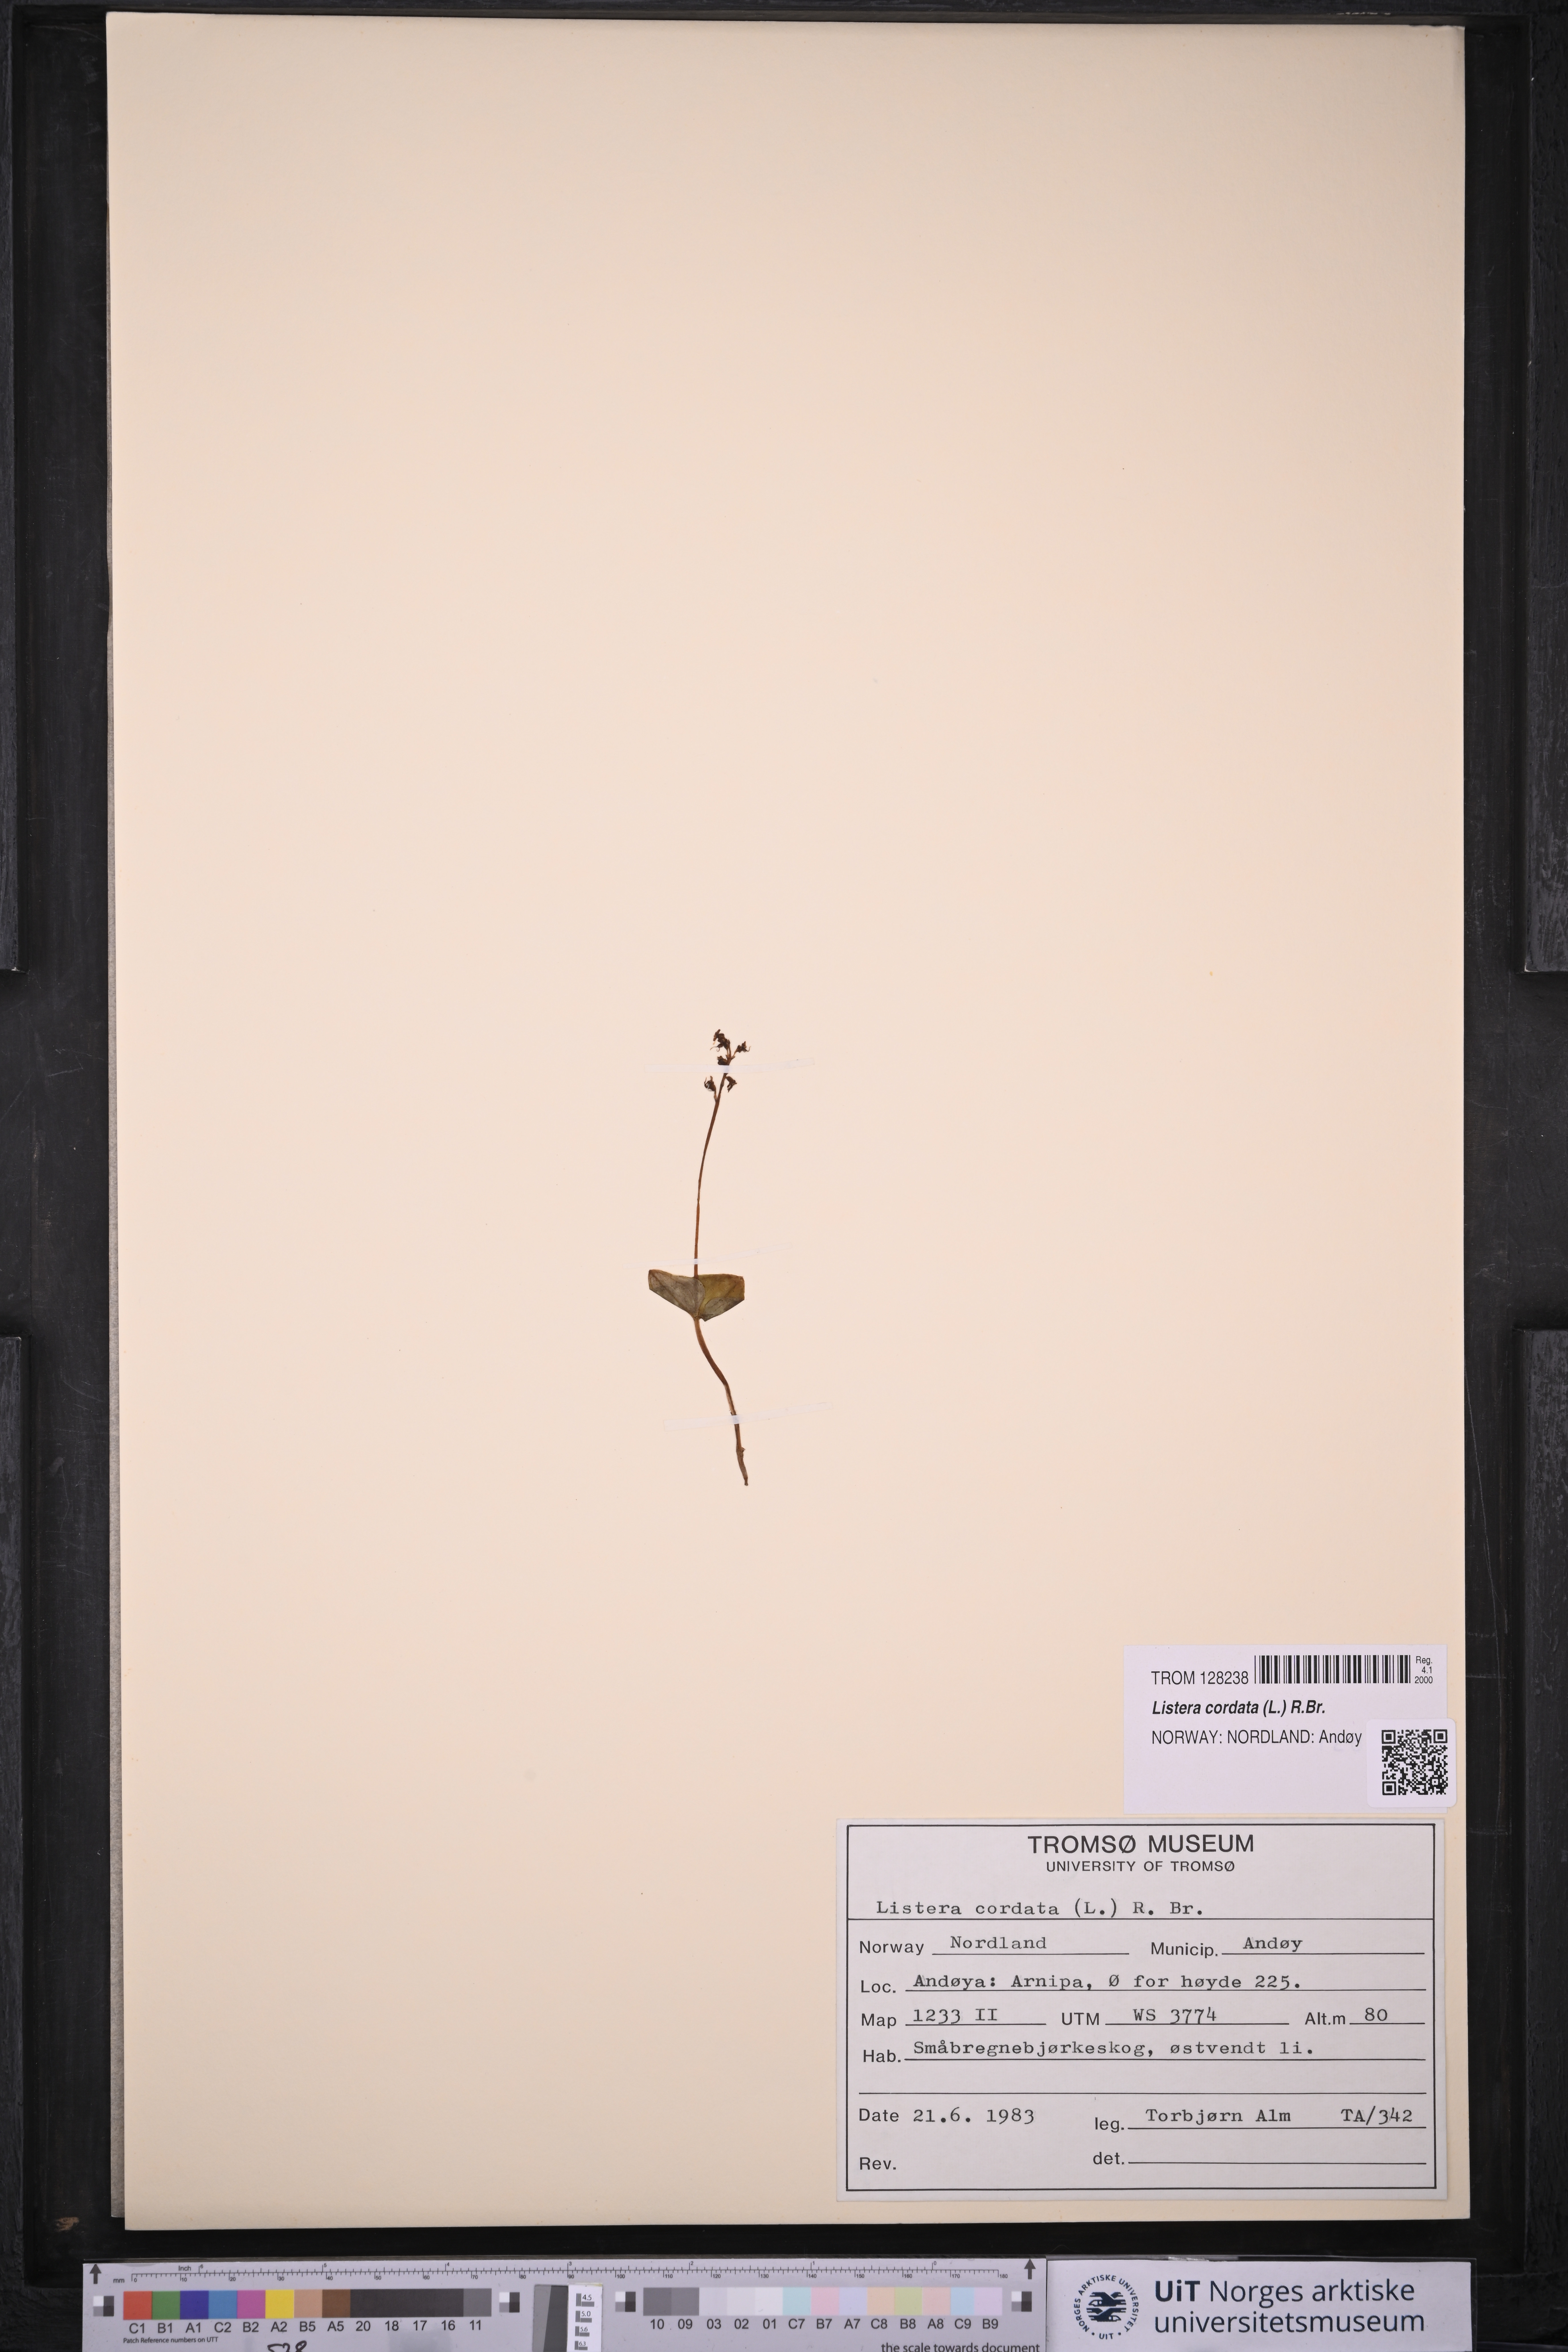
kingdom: Plantae
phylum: Tracheophyta
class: Liliopsida
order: Asparagales
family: Orchidaceae
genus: Neottia
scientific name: Neottia cordata
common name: Lesser twayblade
